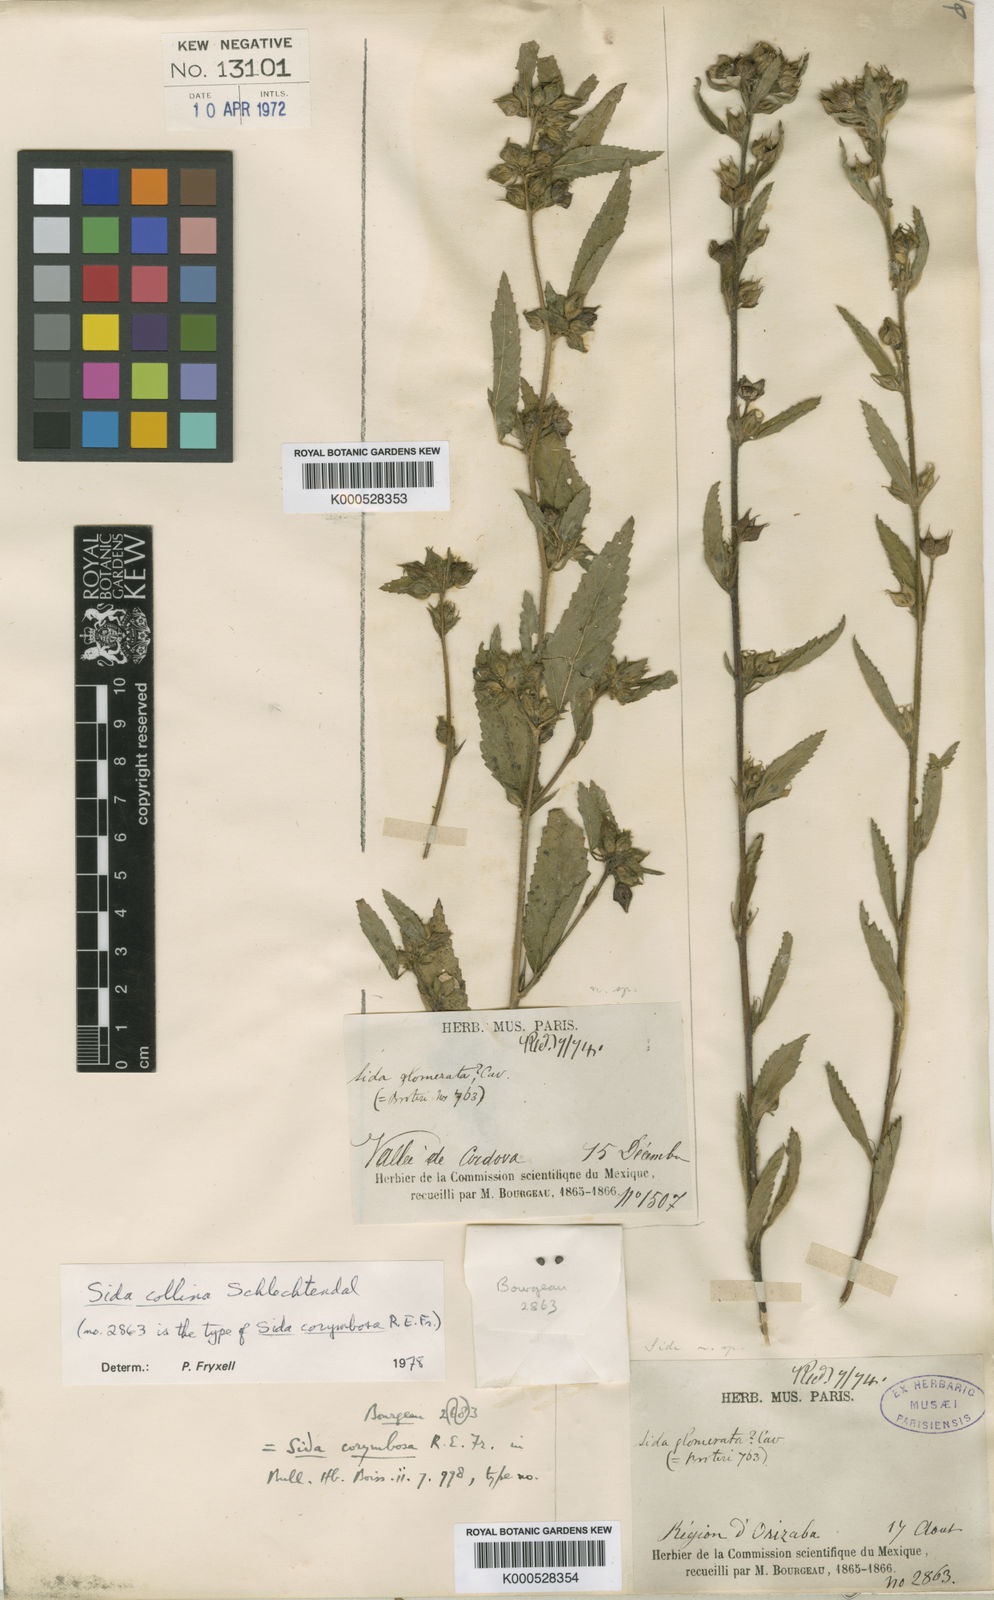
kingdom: Plantae
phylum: Tracheophyta
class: Magnoliopsida
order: Malvales
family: Malvaceae
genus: Sida
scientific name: Sida collina
